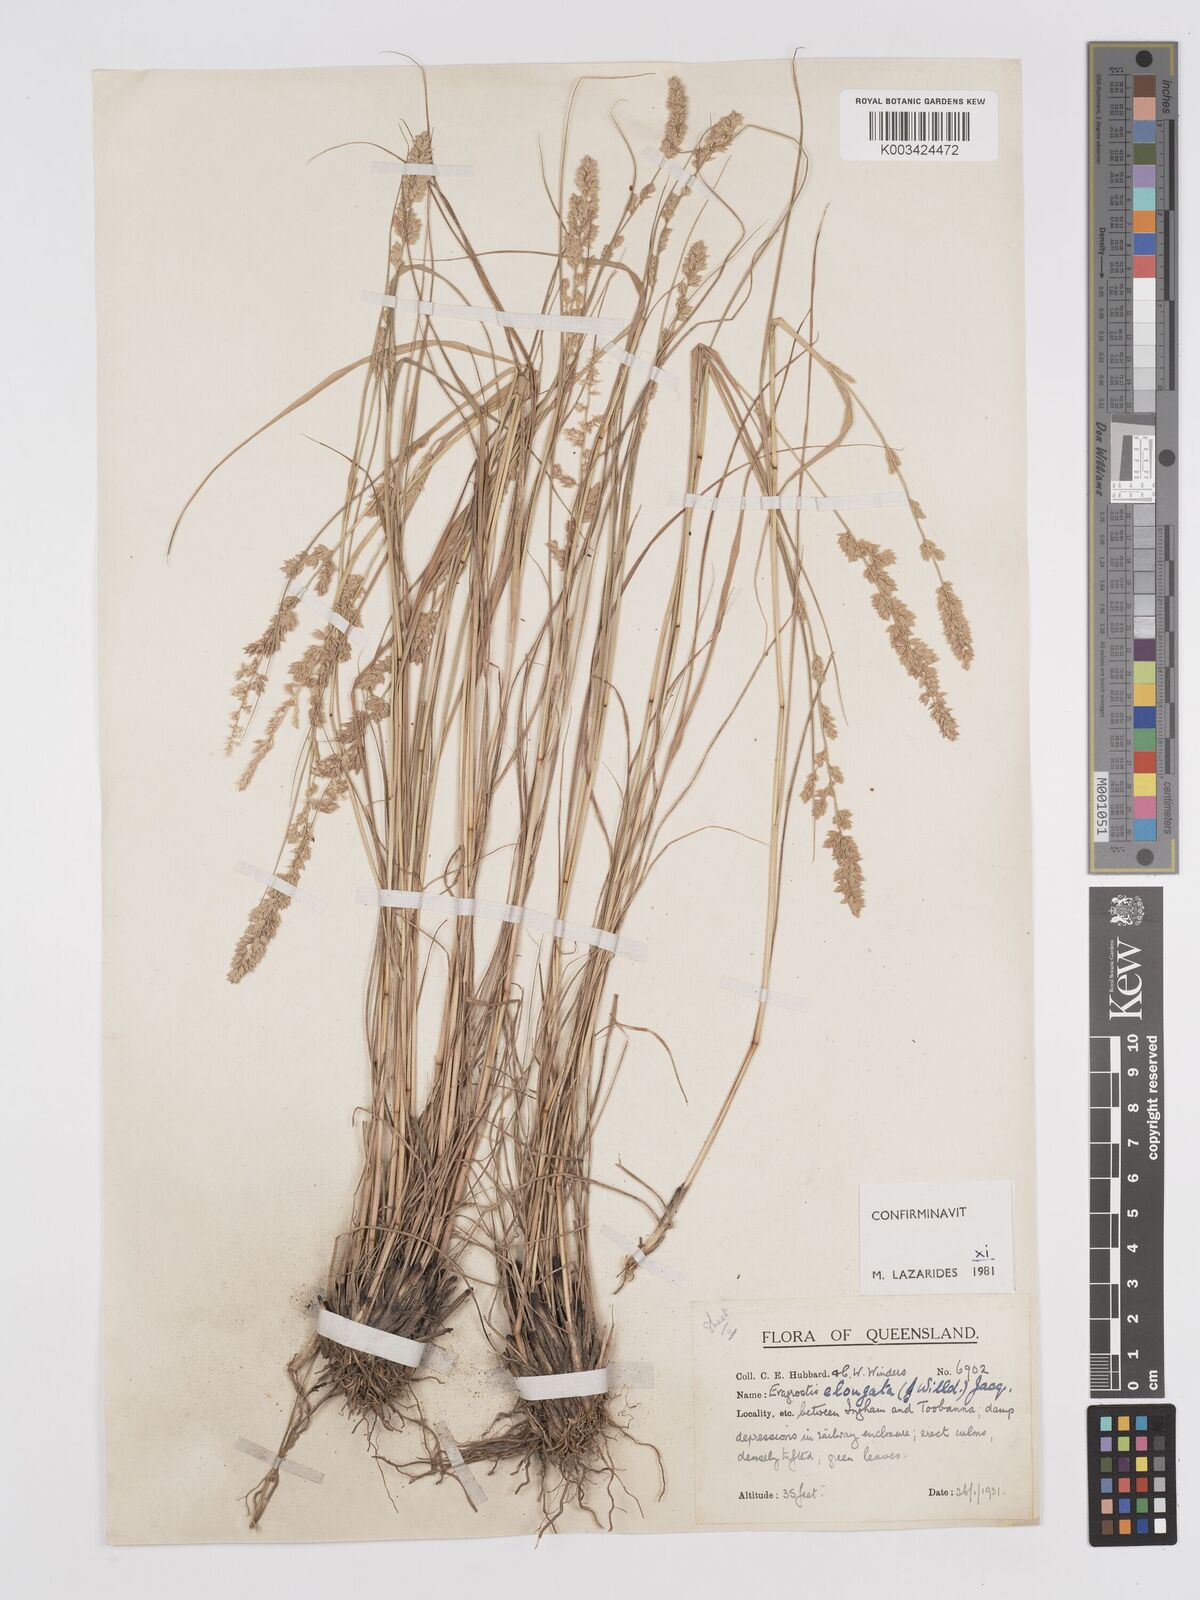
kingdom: Plantae
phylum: Tracheophyta
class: Liliopsida
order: Poales
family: Poaceae
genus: Eragrostis
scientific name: Eragrostis elongata
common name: Long lovegrass
